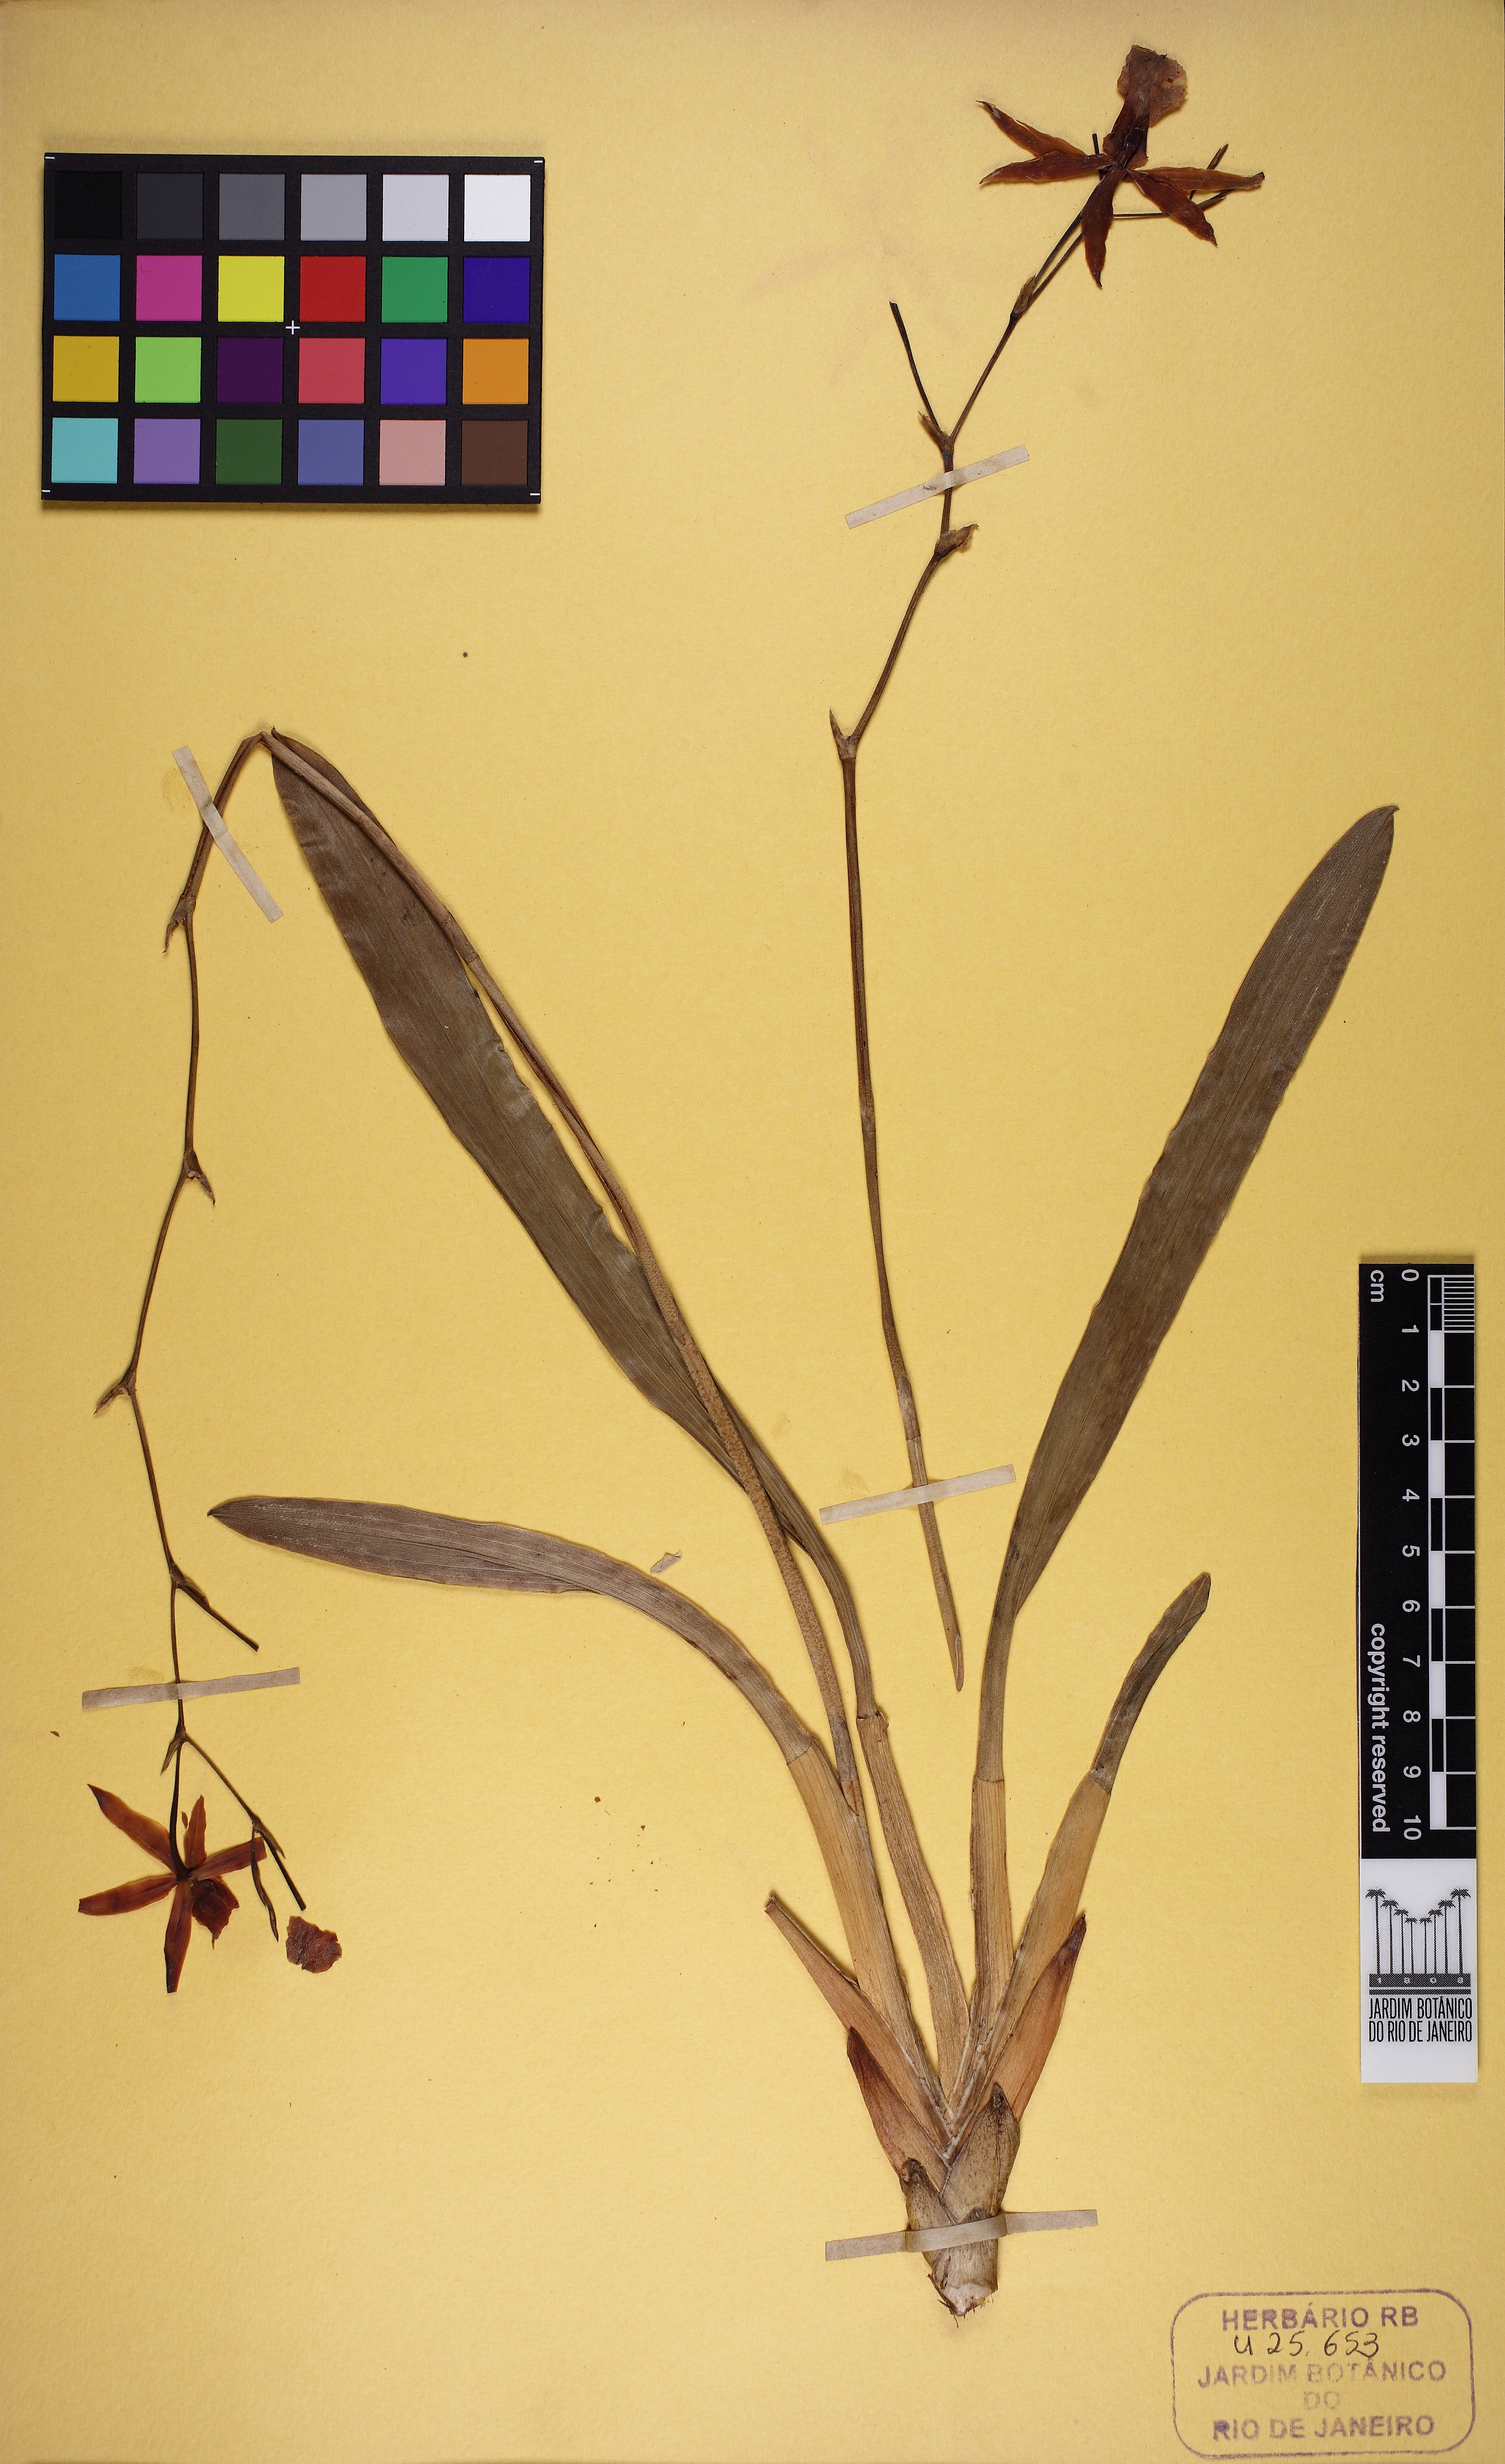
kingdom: Plantae
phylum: Tracheophyta
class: Liliopsida
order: Asparagales
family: Orchidaceae
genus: Miltonia
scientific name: Miltonia clowesii
